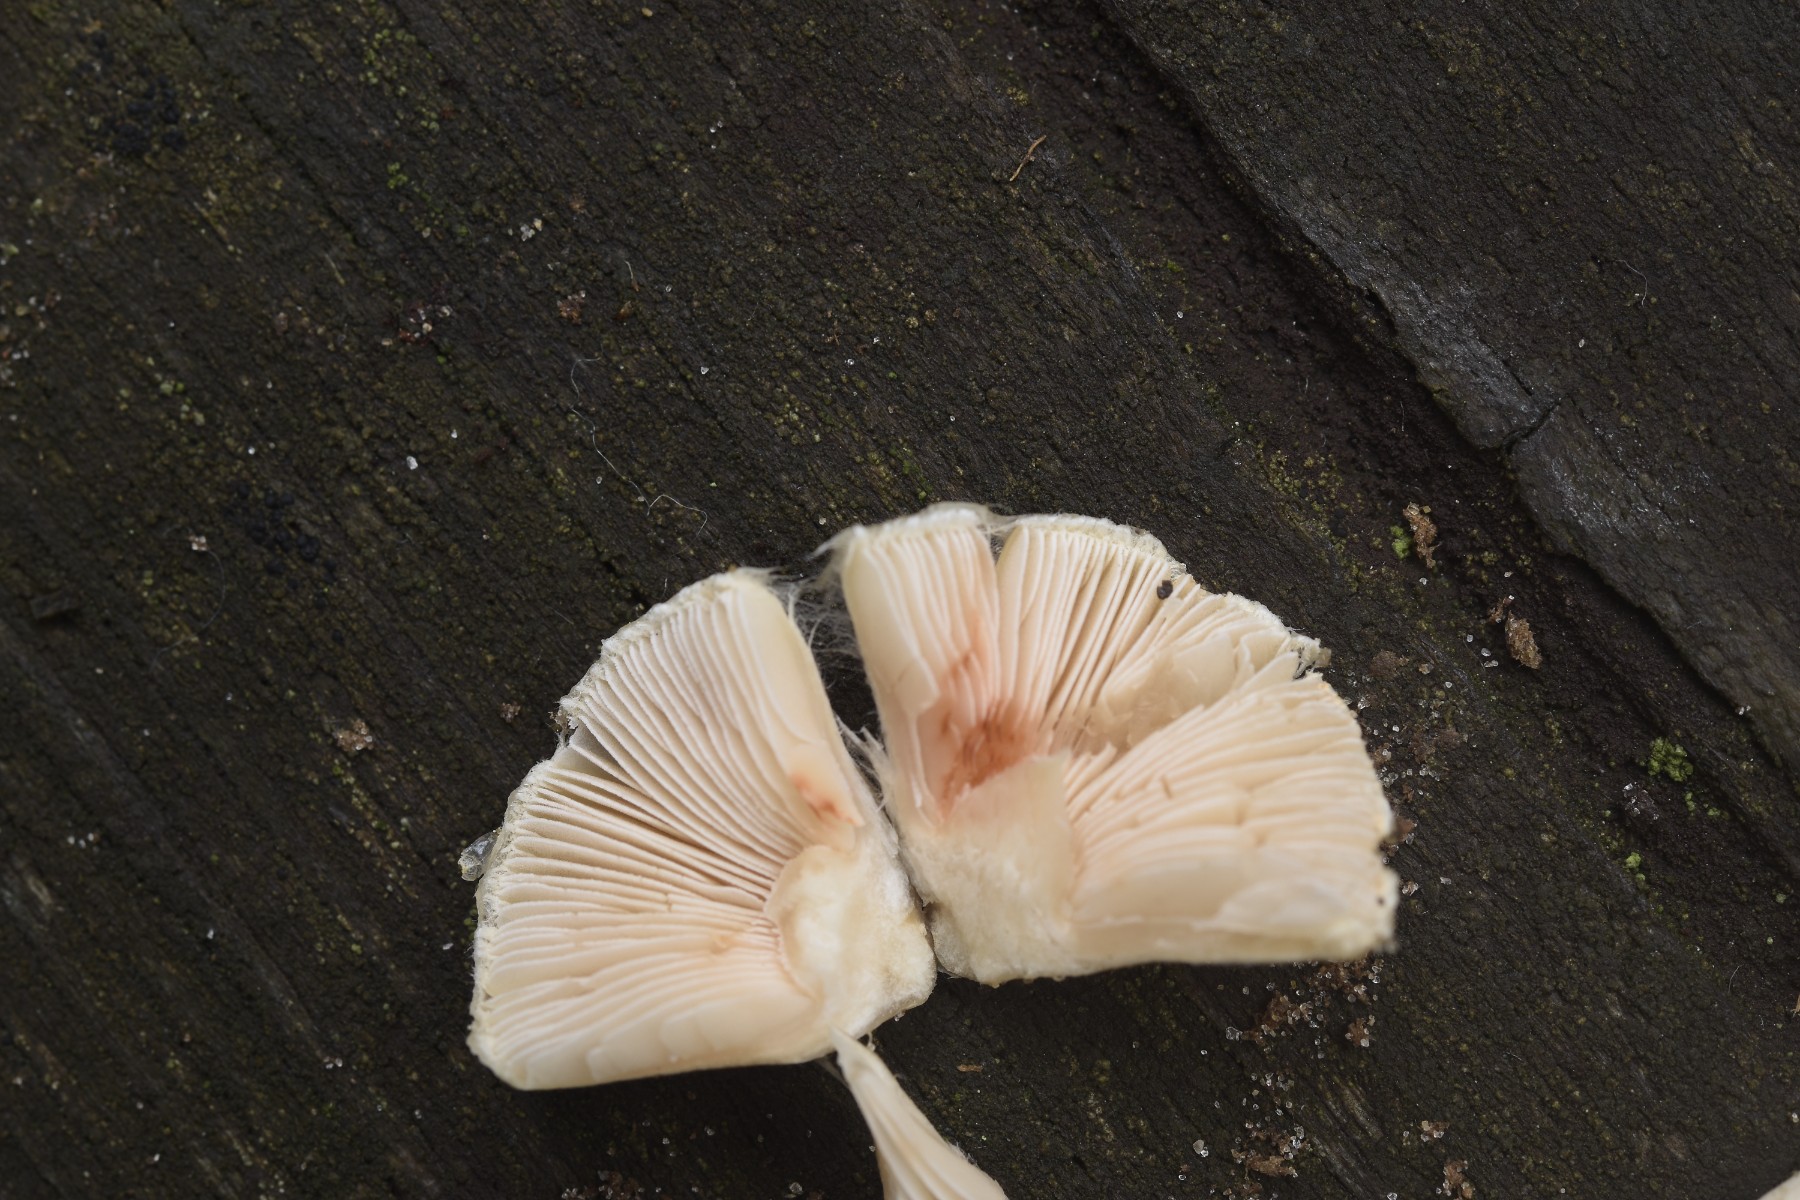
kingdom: Fungi
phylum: Basidiomycota
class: Agaricomycetes
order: Agaricales
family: Inocybaceae
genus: Inocybe
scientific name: Inocybe armeniaca
